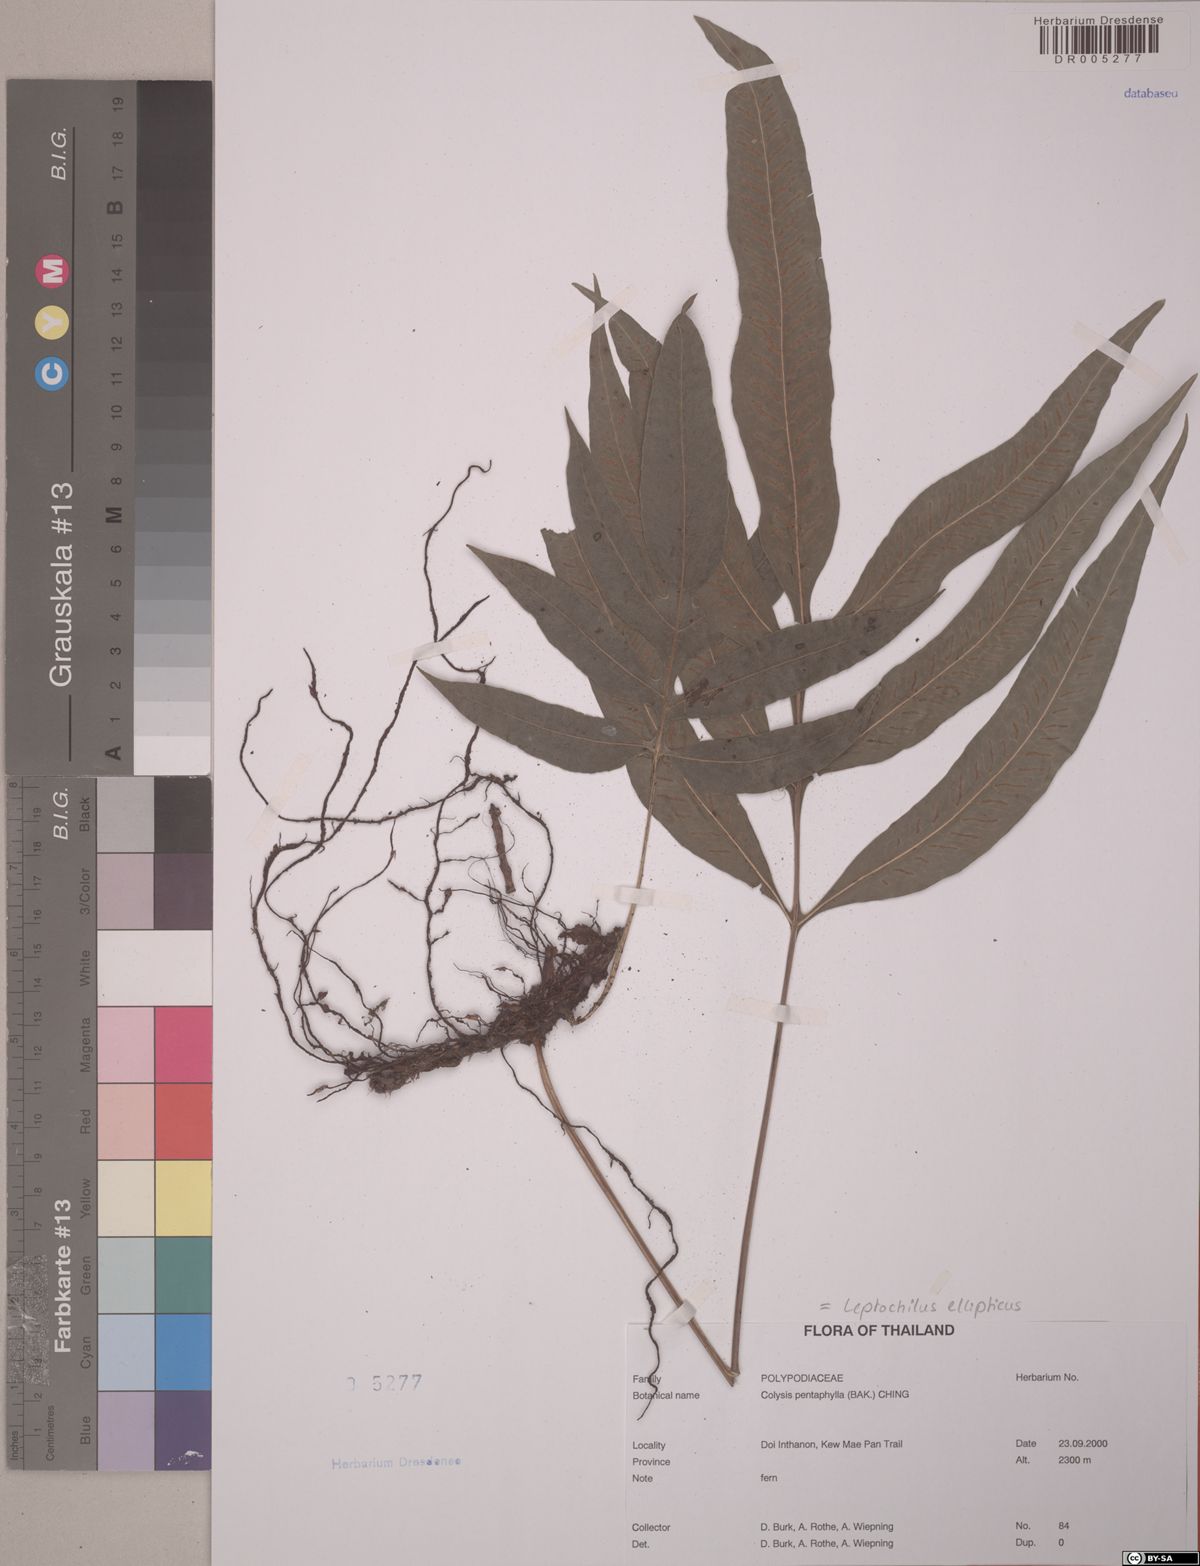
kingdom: Plantae
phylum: Tracheophyta
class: Polypodiopsida
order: Polypodiales
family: Polypodiaceae
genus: Leptochilus
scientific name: Leptochilus ellipticus
